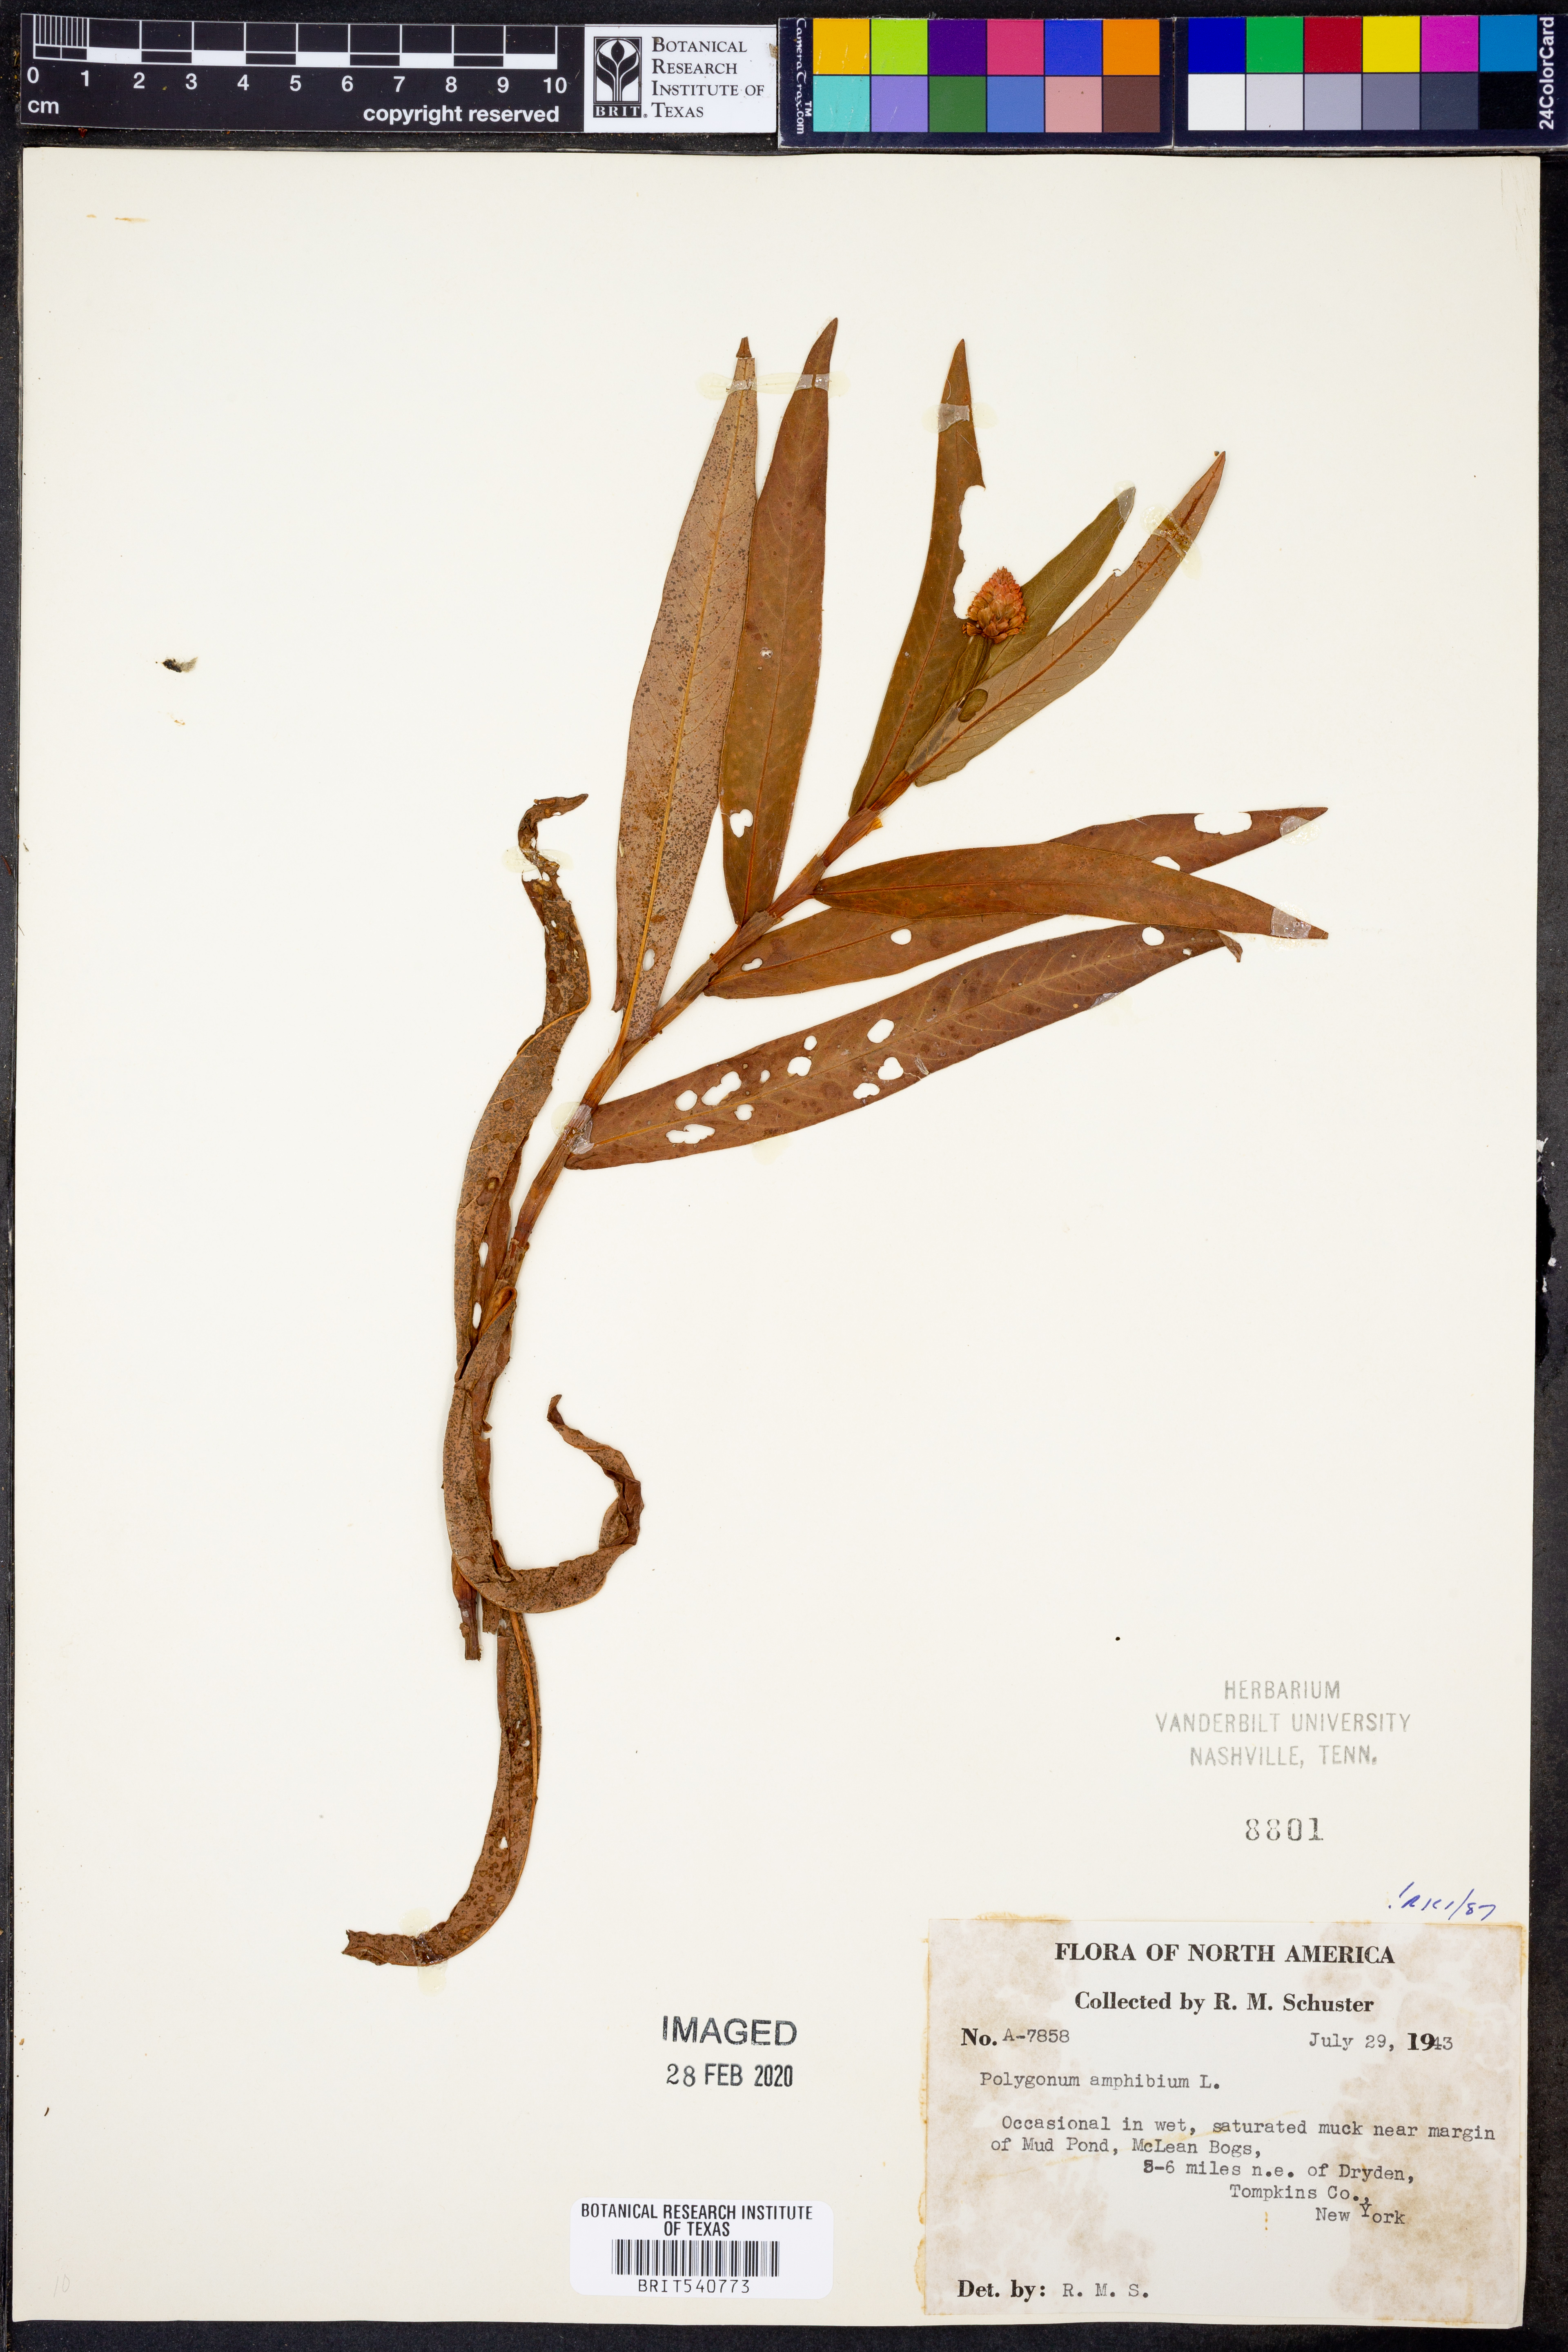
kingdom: Plantae
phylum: Tracheophyta
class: Magnoliopsida
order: Caryophyllales
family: Polygonaceae
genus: Persicaria
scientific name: Persicaria amphibia
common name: Amphibious bistort
